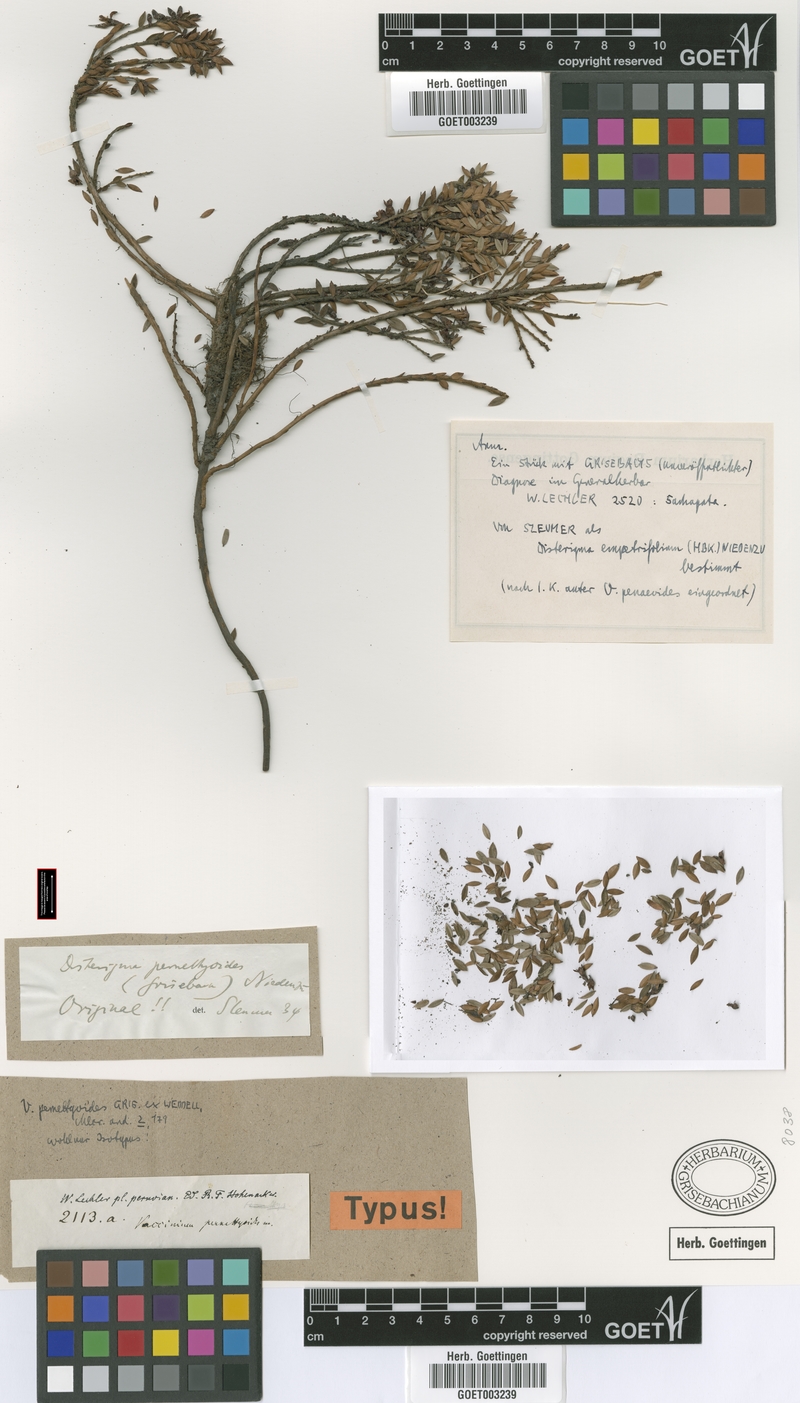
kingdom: Plantae
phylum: Tracheophyta
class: Magnoliopsida
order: Ericales
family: Ericaceae
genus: Disterigma
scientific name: Disterigma pernettyoides
